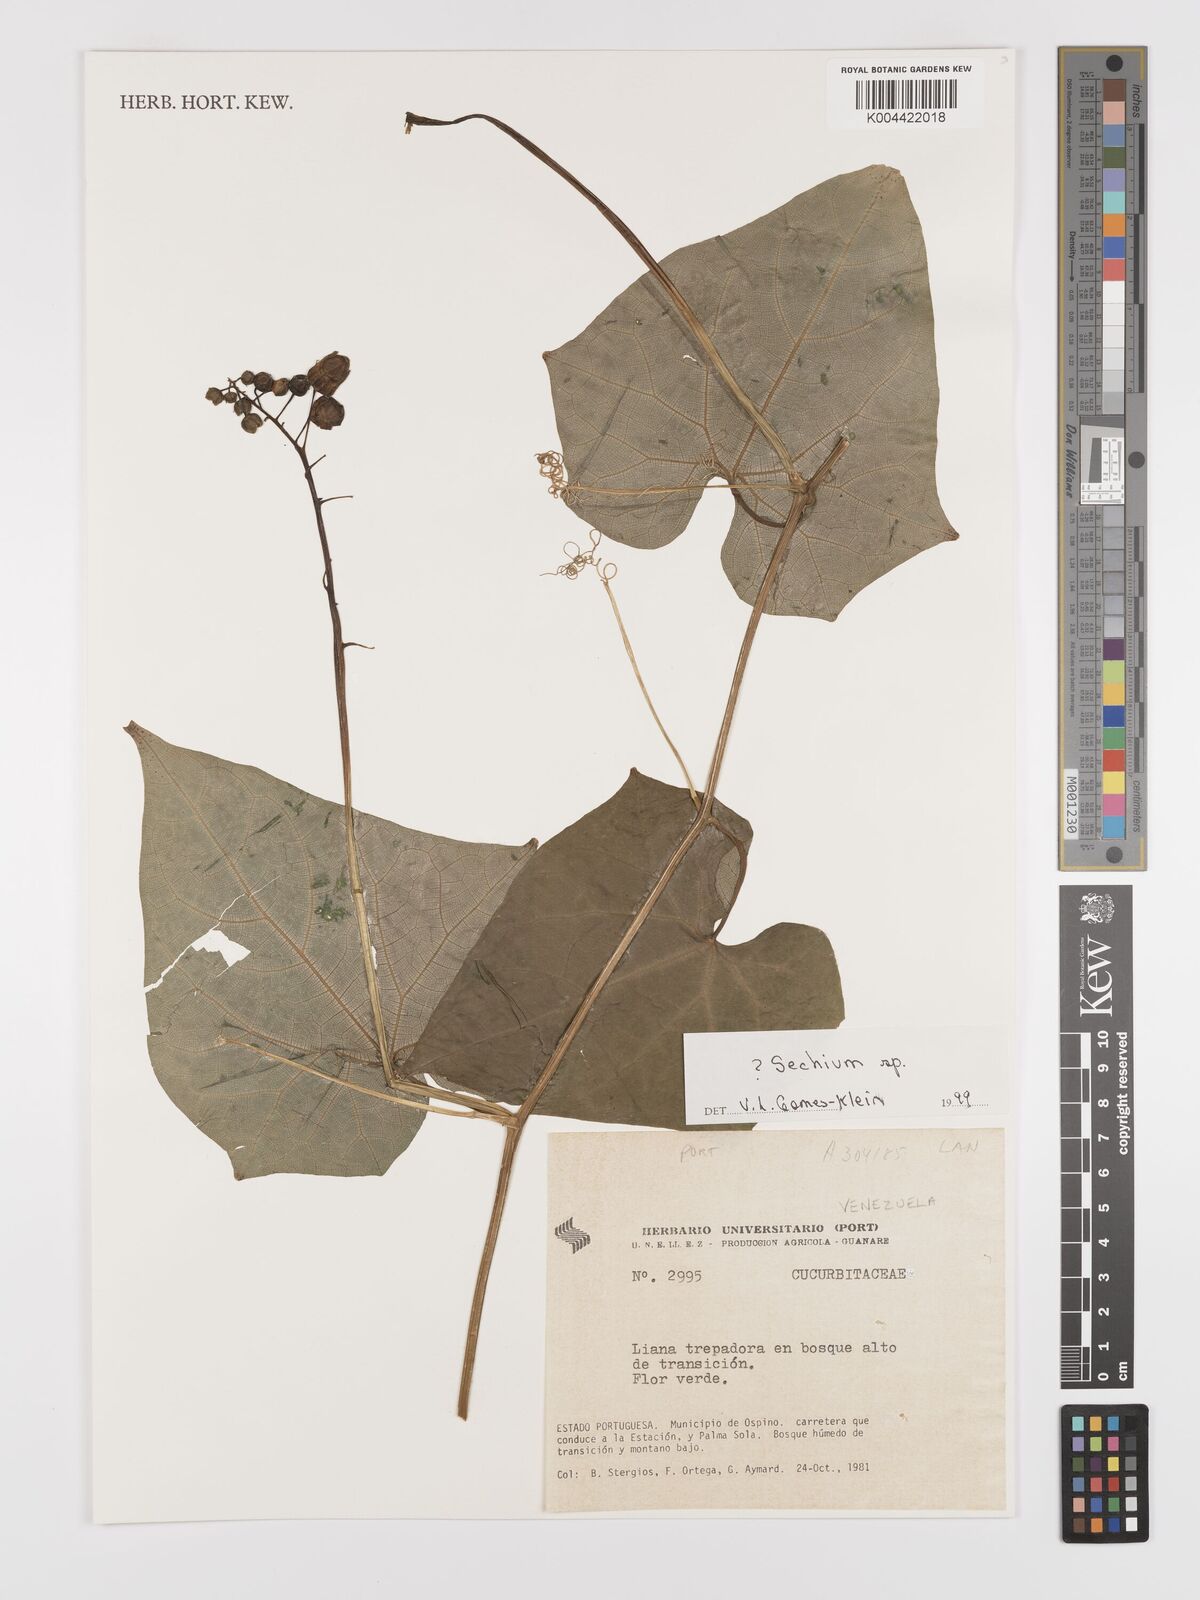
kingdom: Plantae
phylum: Tracheophyta
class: Magnoliopsida
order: Cucurbitales
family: Cucurbitaceae
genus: Sechium
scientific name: Sechium
